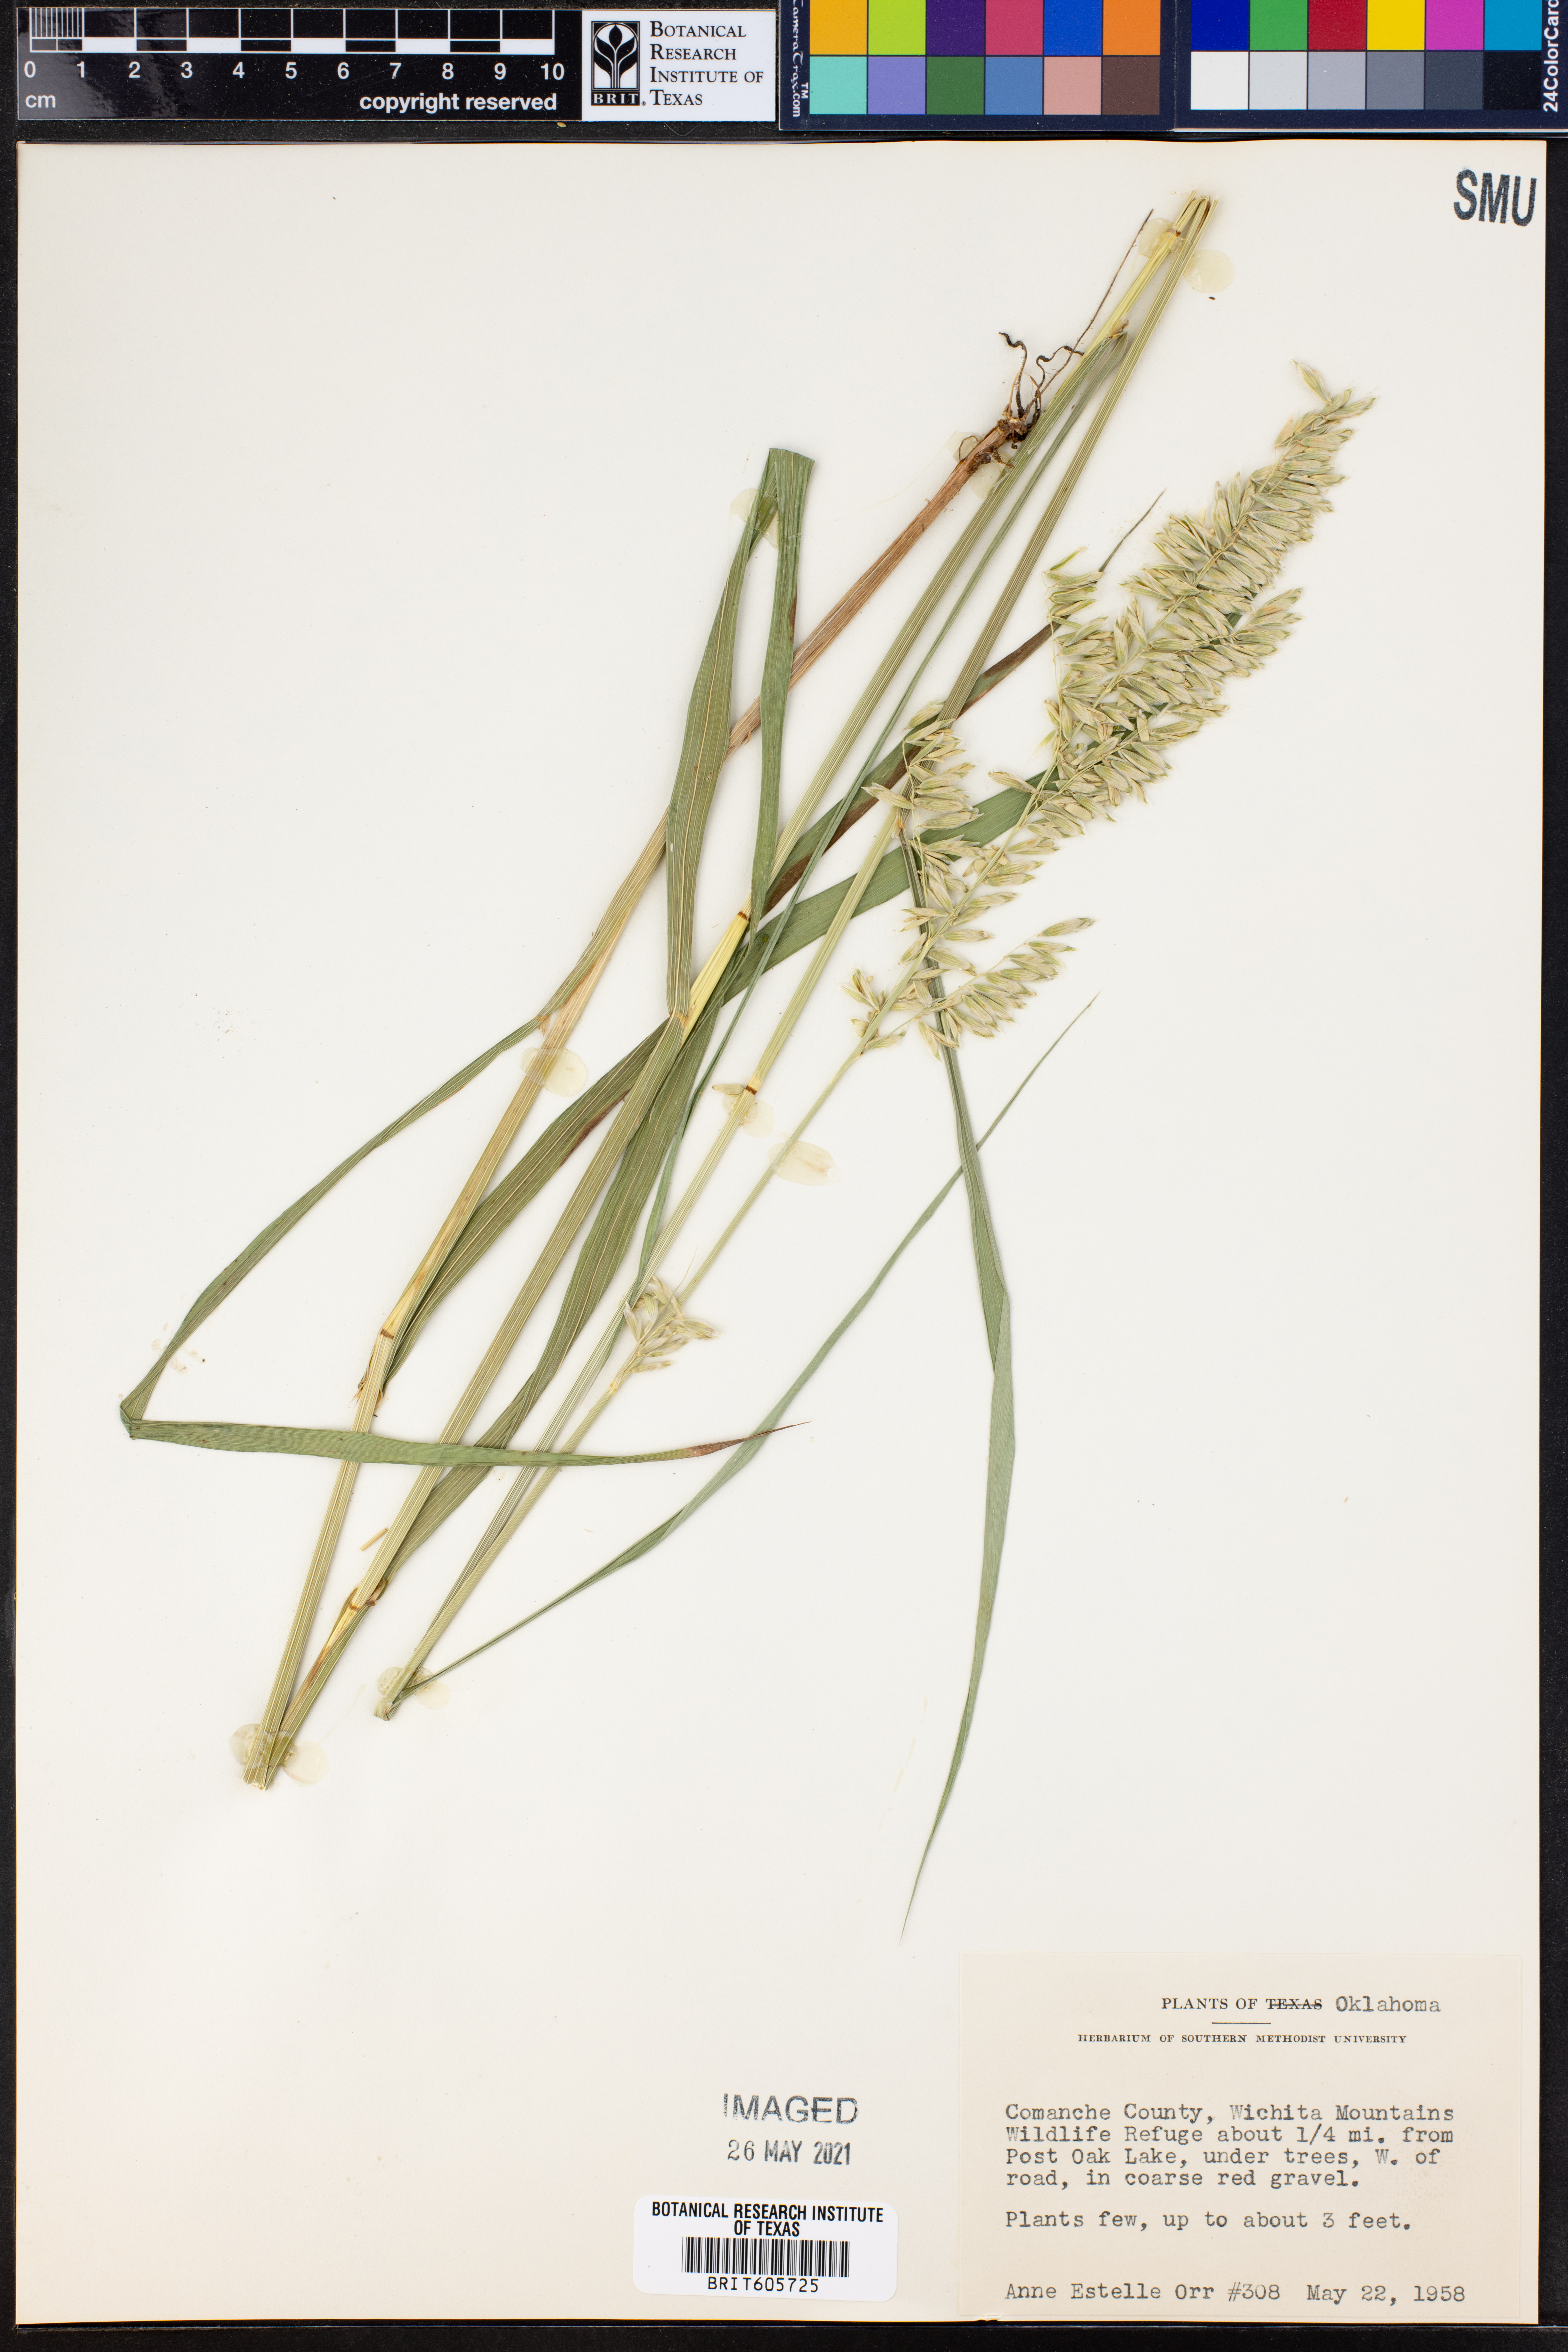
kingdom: Plantae
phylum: Tracheophyta
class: Liliopsida
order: Poales
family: Poaceae
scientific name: Poaceae
